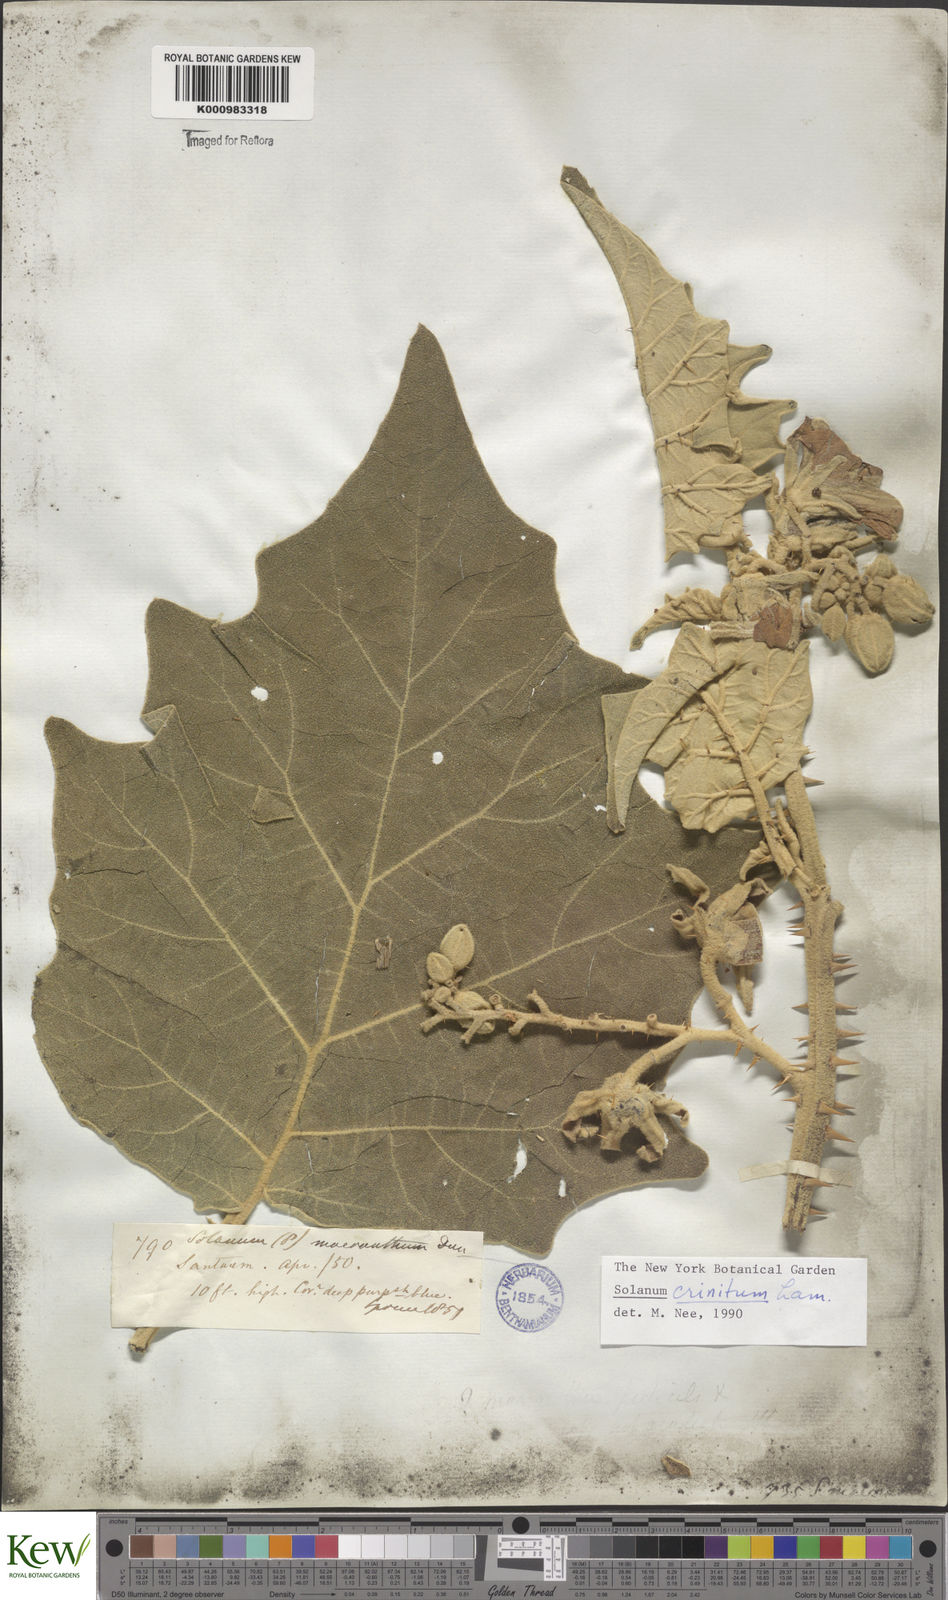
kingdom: Plantae
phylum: Tracheophyta
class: Magnoliopsida
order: Solanales
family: Solanaceae
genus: Solanum
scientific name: Solanum crinitum
